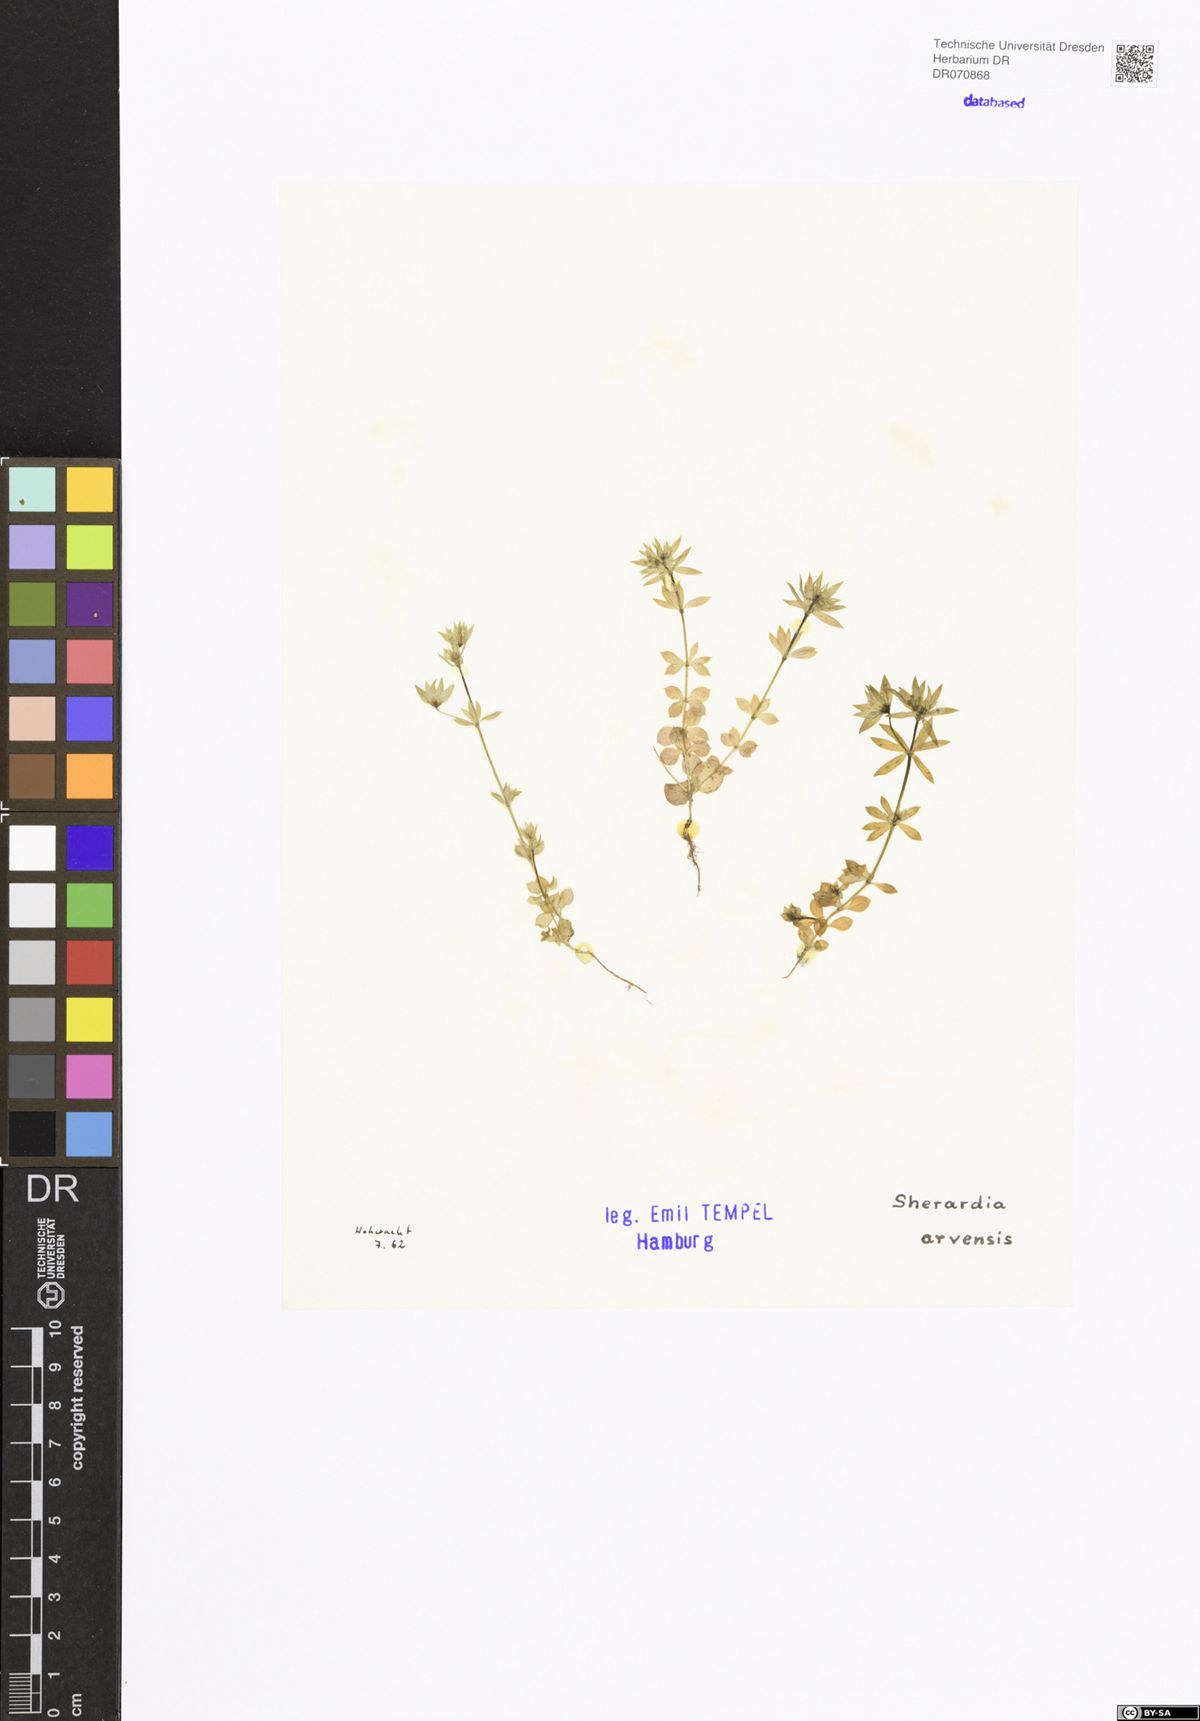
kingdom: Plantae
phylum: Tracheophyta
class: Magnoliopsida
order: Gentianales
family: Rubiaceae
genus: Sherardia
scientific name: Sherardia arvensis
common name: Field madder
